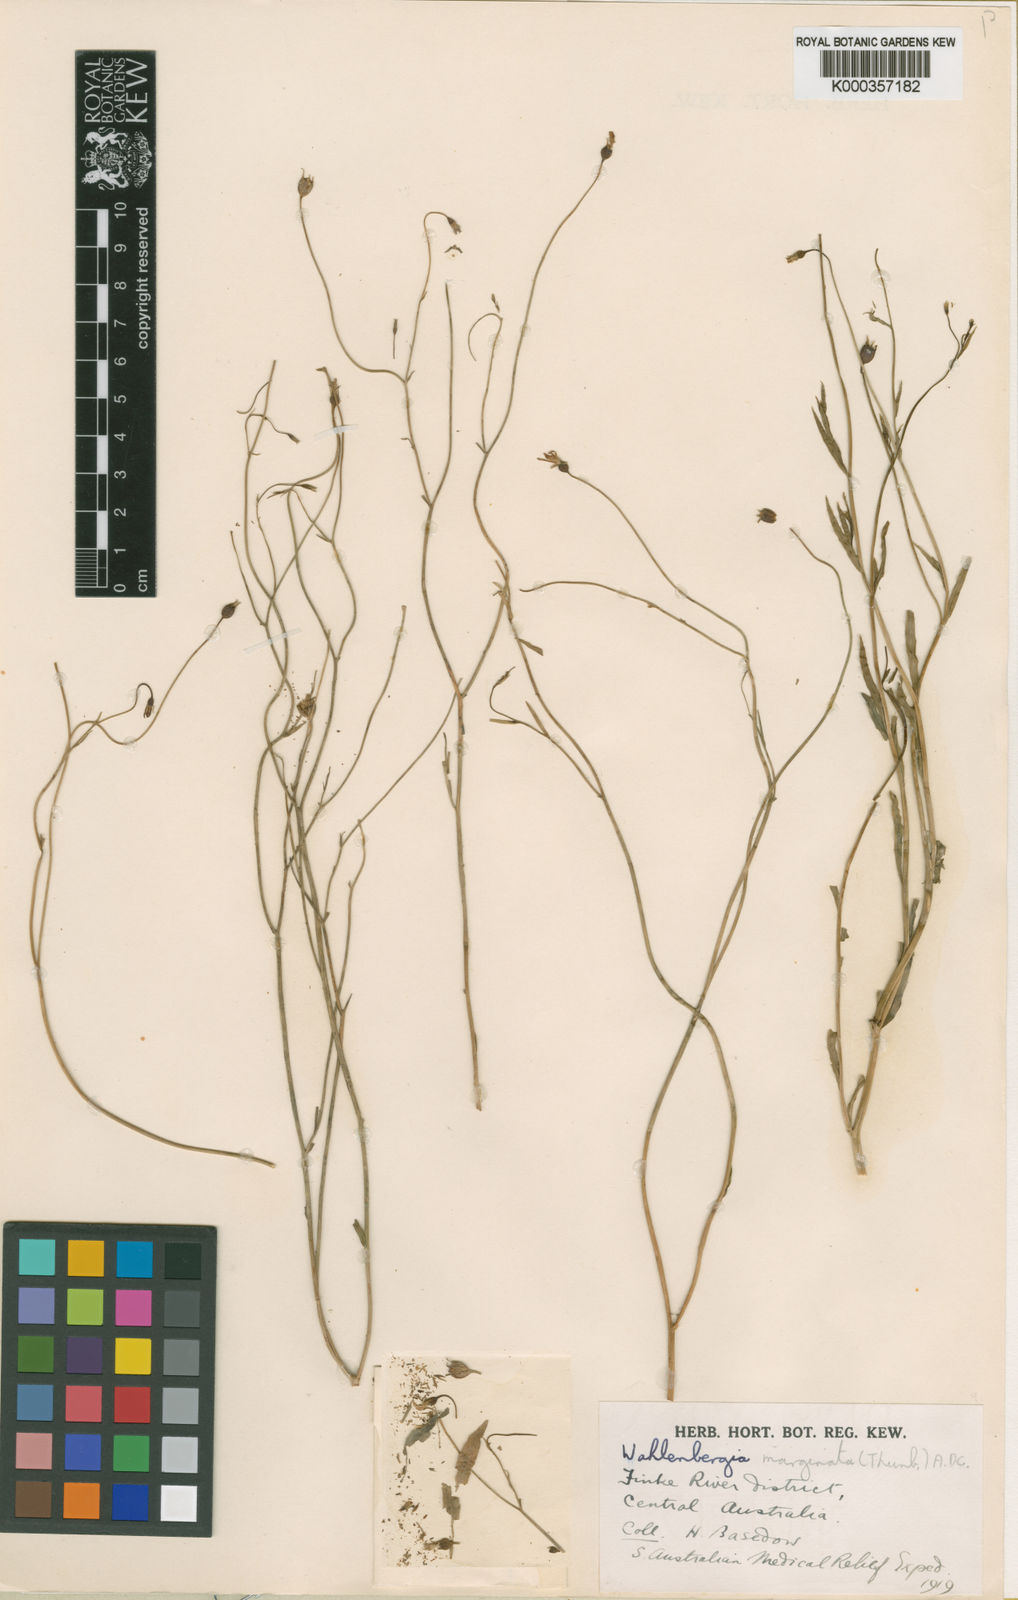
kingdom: Plantae
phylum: Tracheophyta
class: Magnoliopsida
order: Asterales
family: Campanulaceae
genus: Wahlenbergia
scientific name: Wahlenbergia marginata
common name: Southern rockbell
